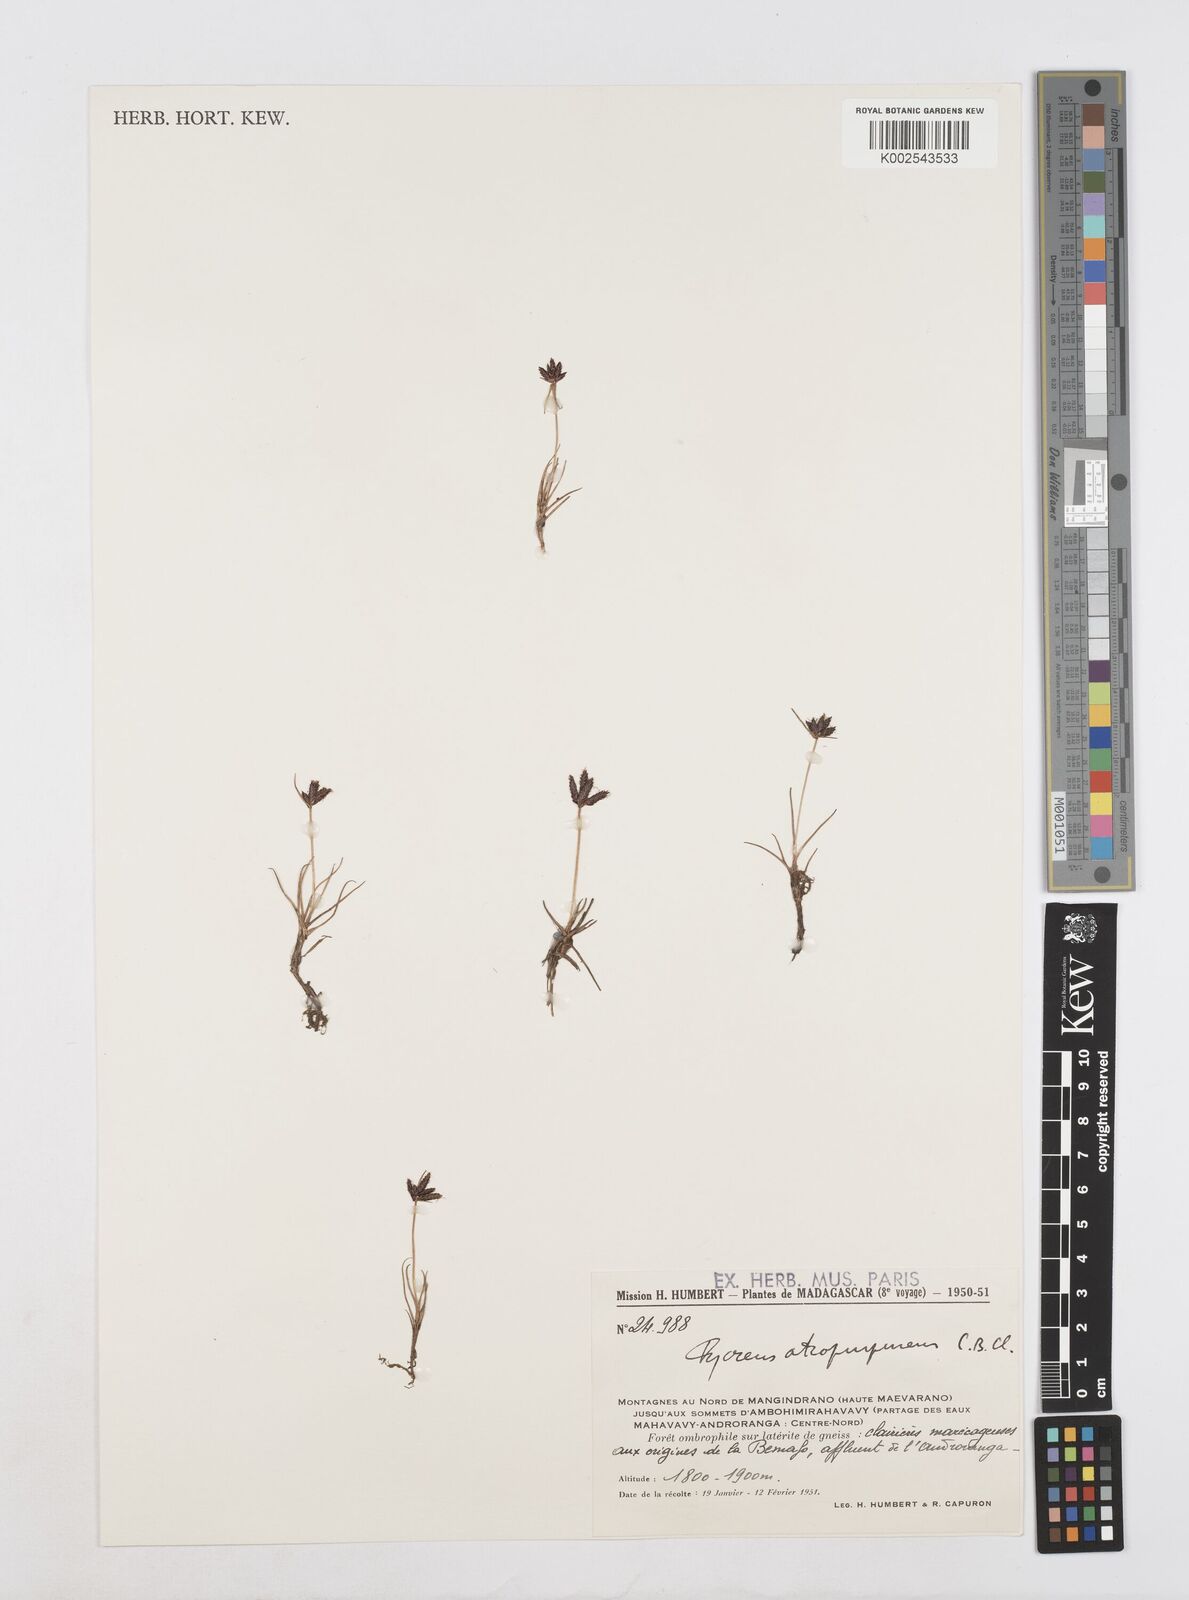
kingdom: Plantae
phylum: Tracheophyta
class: Liliopsida
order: Poales
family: Cyperaceae
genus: Cyperus
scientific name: Cyperus chermezonii
